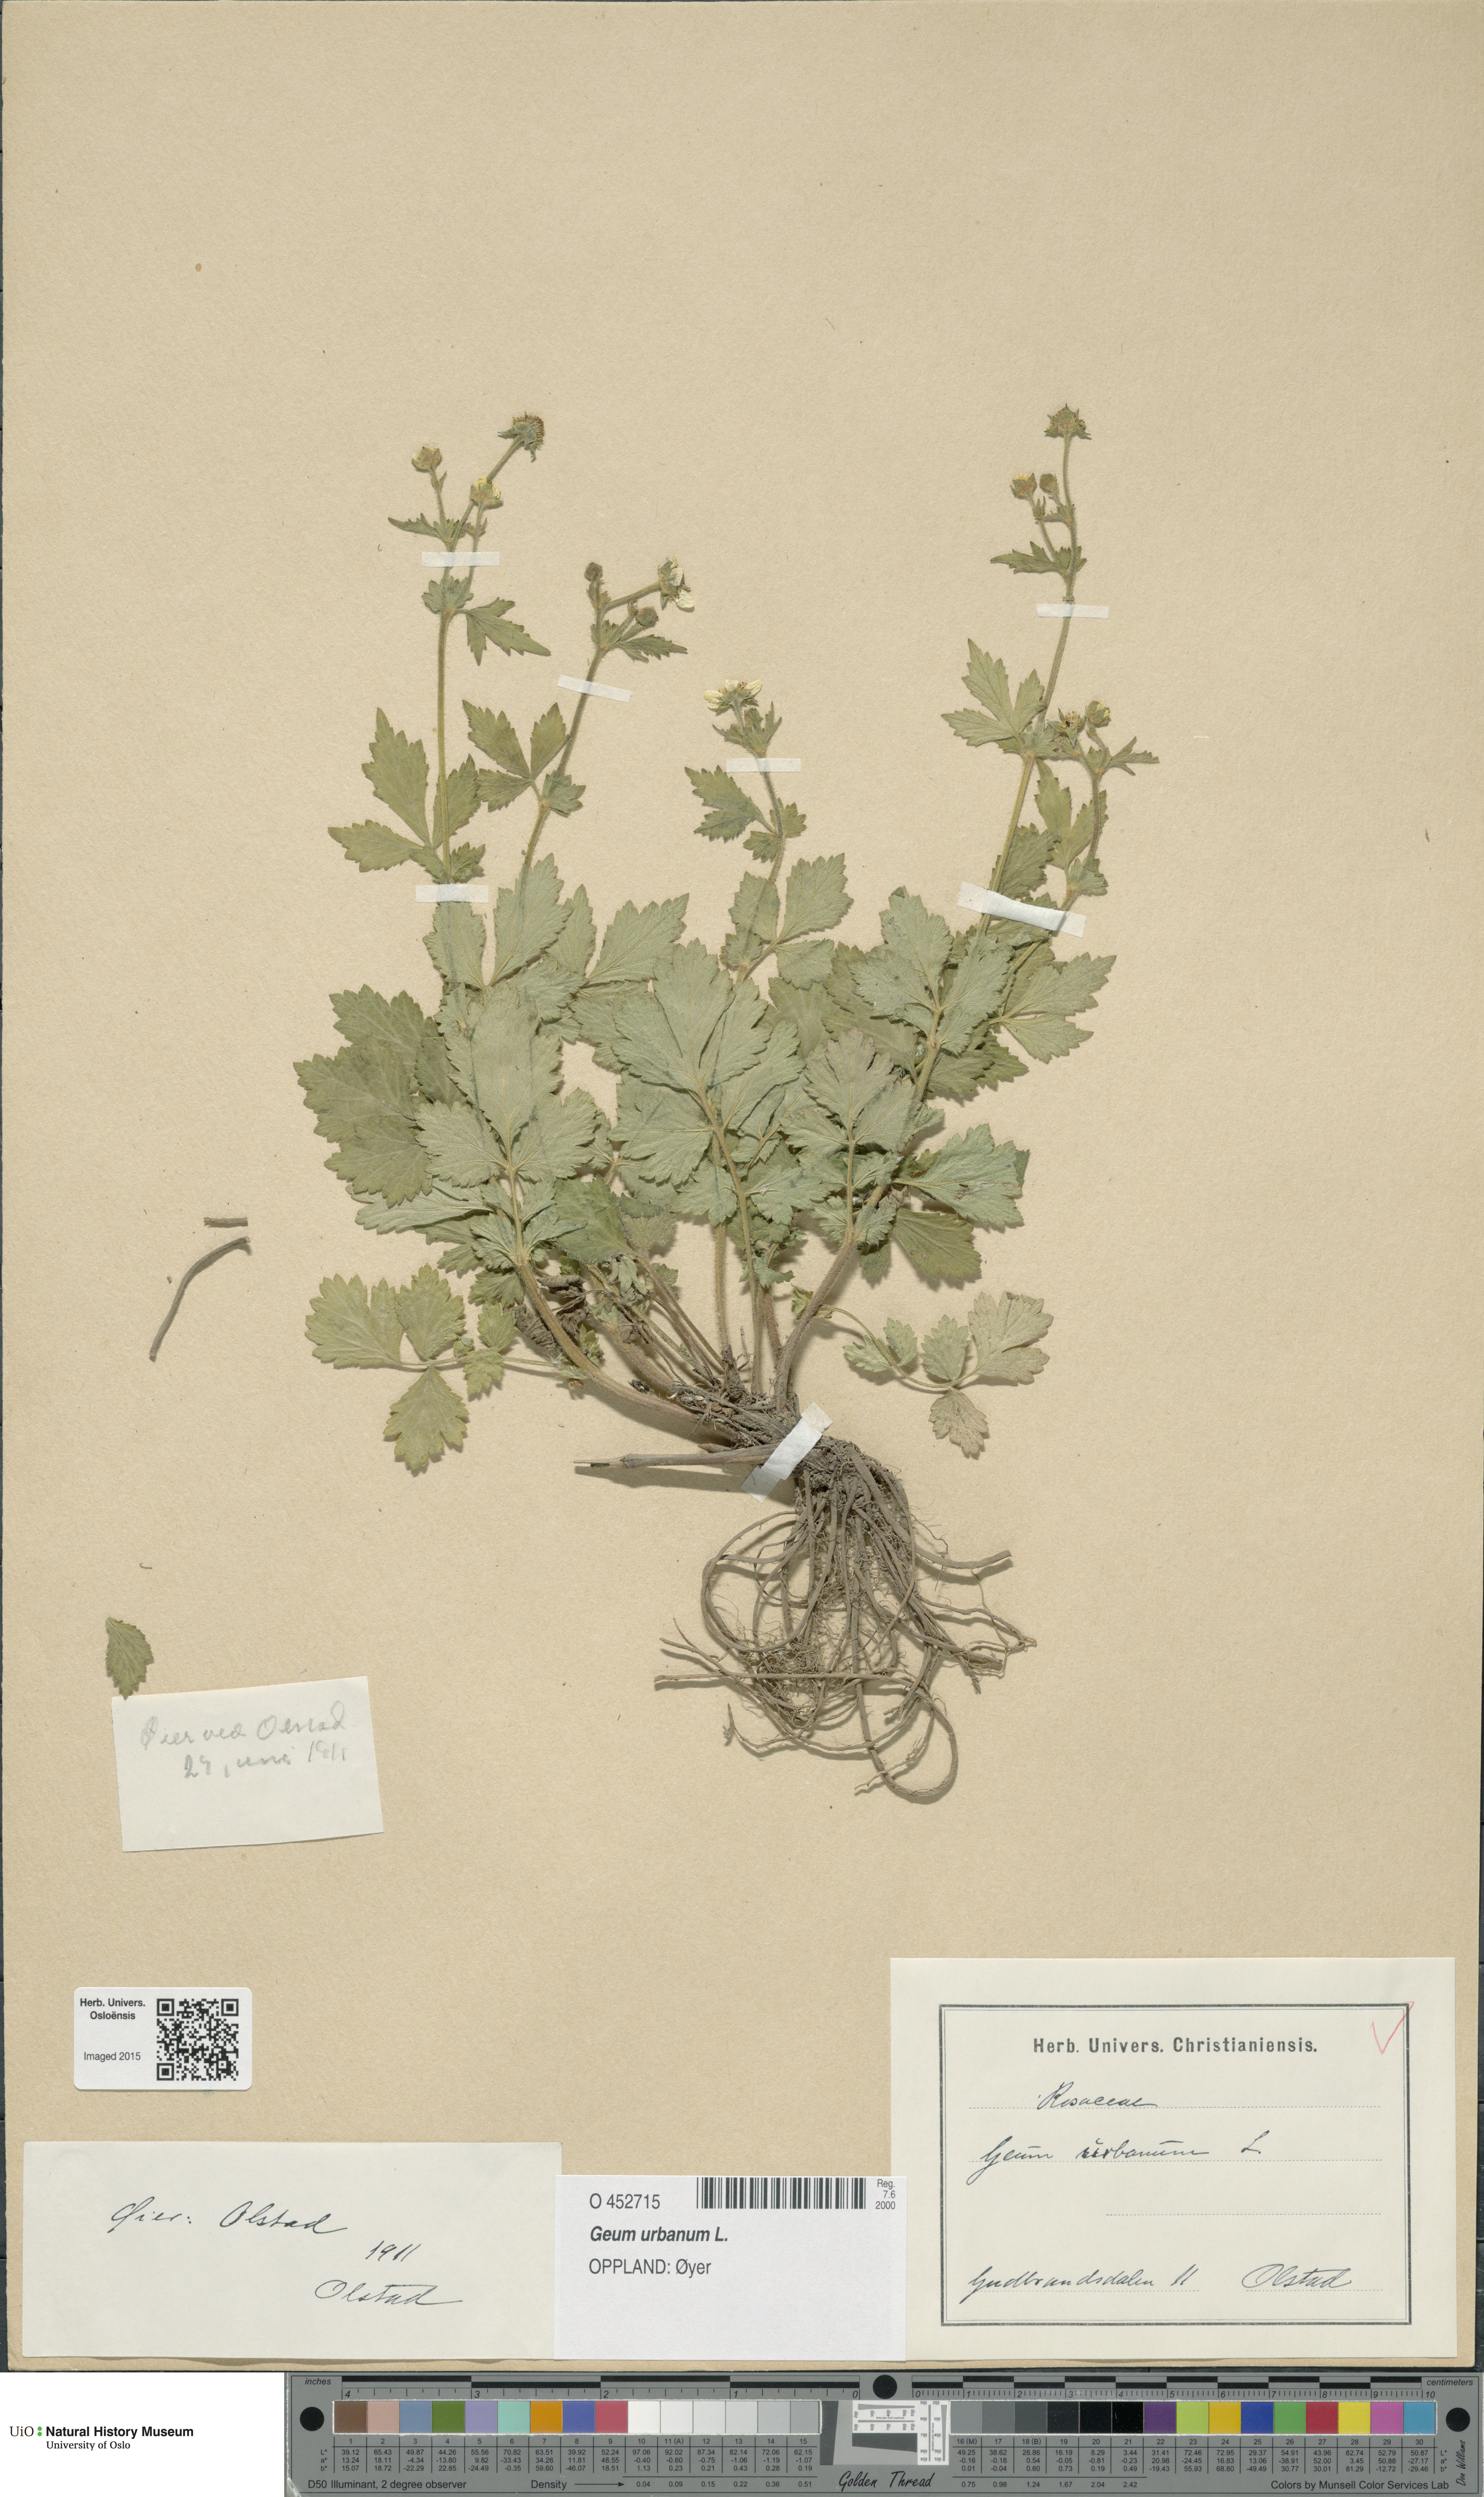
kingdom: Plantae
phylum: Tracheophyta
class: Magnoliopsida
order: Rosales
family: Rosaceae
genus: Geum
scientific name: Geum urbanum
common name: Wood avens
